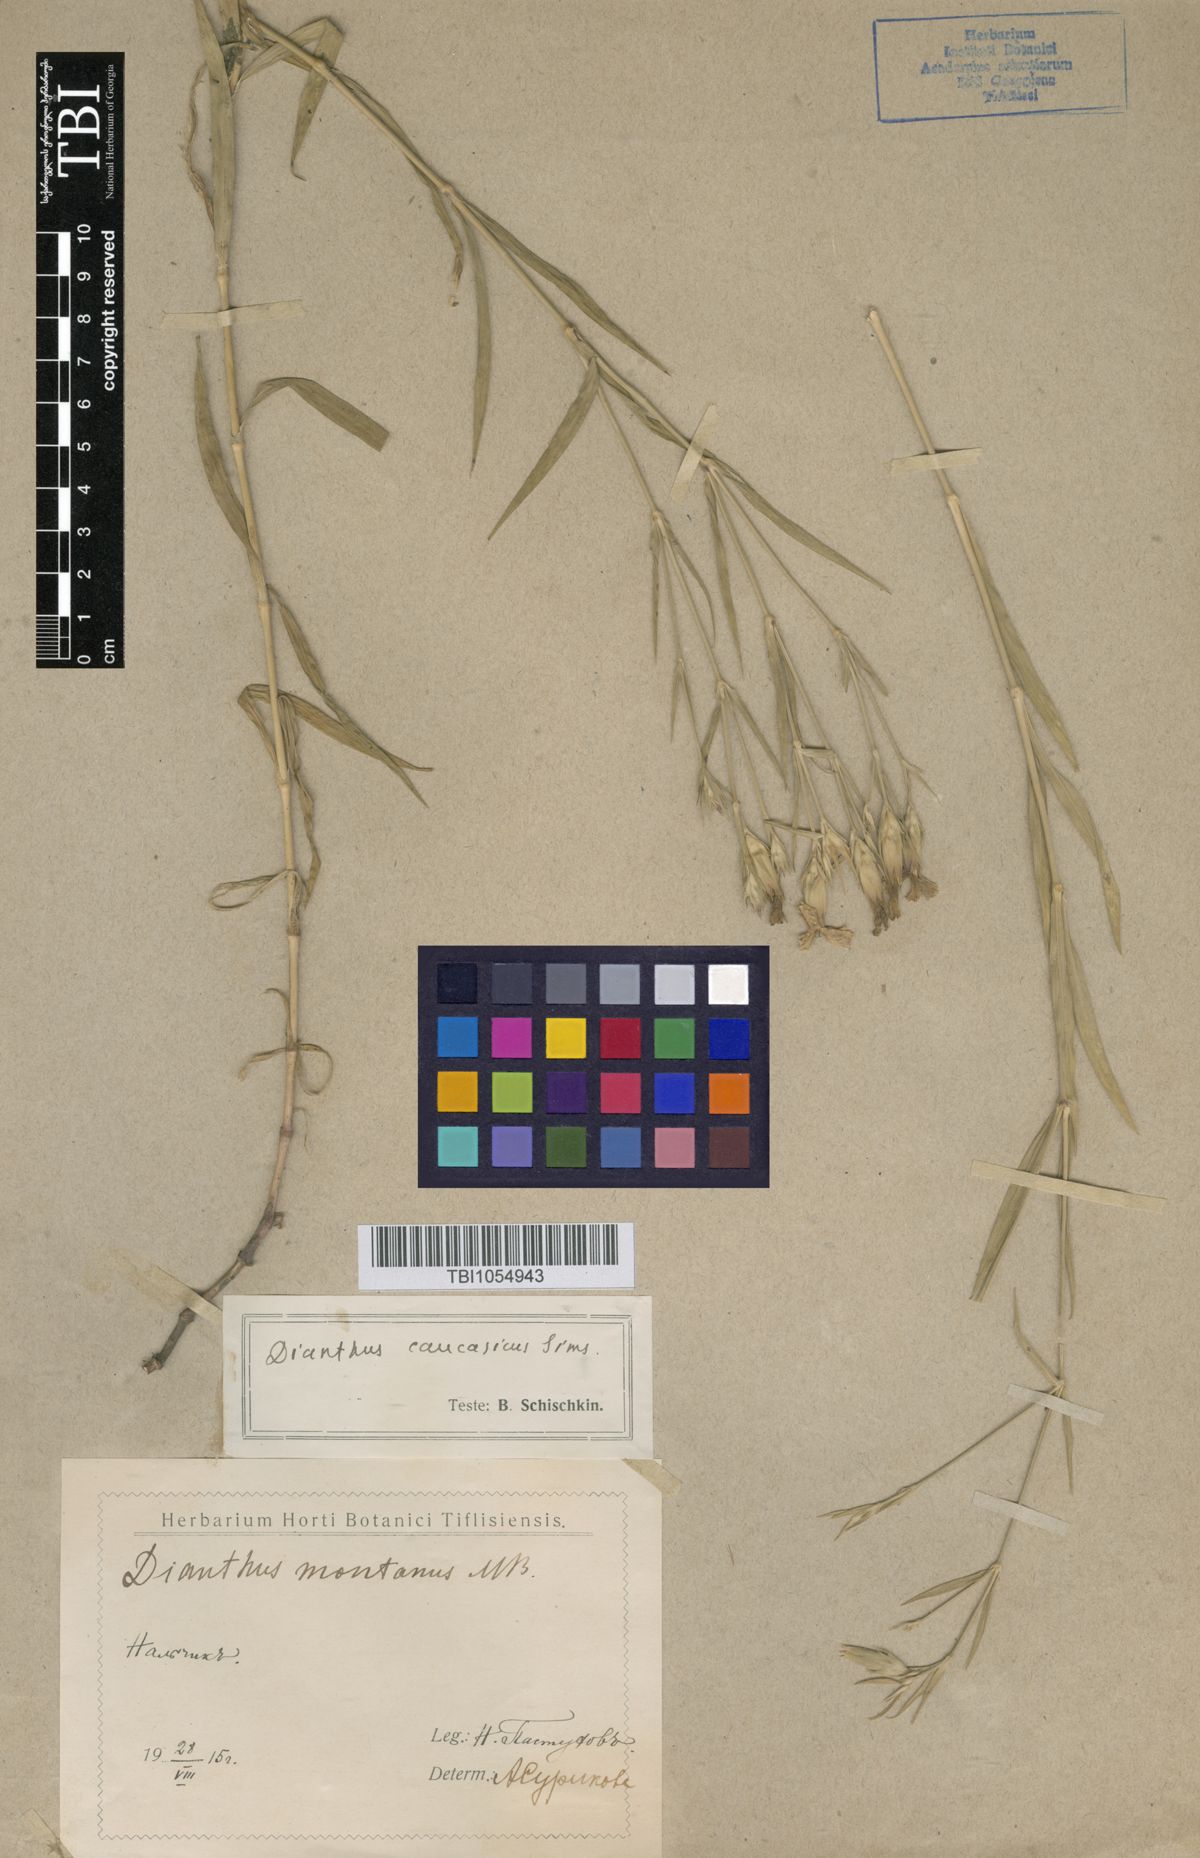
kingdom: Plantae
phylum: Tracheophyta
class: Magnoliopsida
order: Caryophyllales
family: Caryophyllaceae
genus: Dianthus
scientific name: Dianthus caucaseus
